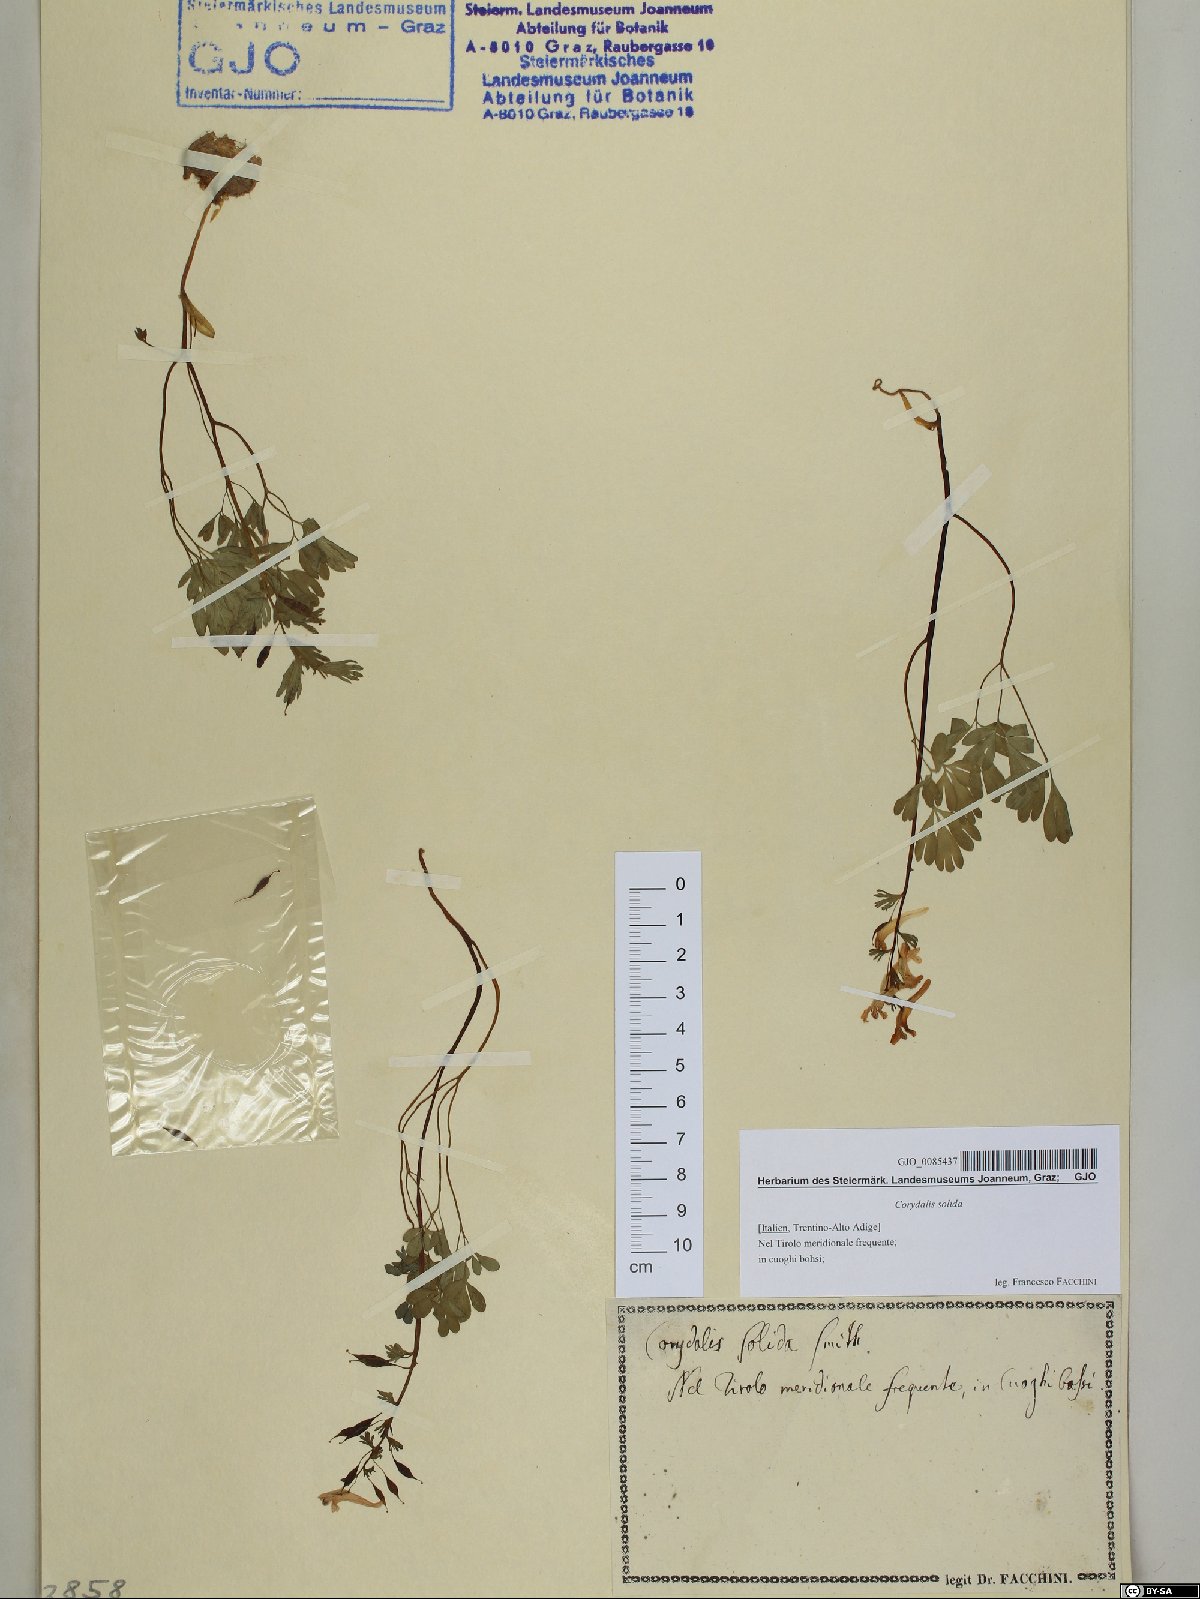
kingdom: Plantae
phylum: Tracheophyta
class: Magnoliopsida
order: Ranunculales
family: Papaveraceae
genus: Corydalis
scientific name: Corydalis solida
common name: Bird-in-a-bush
